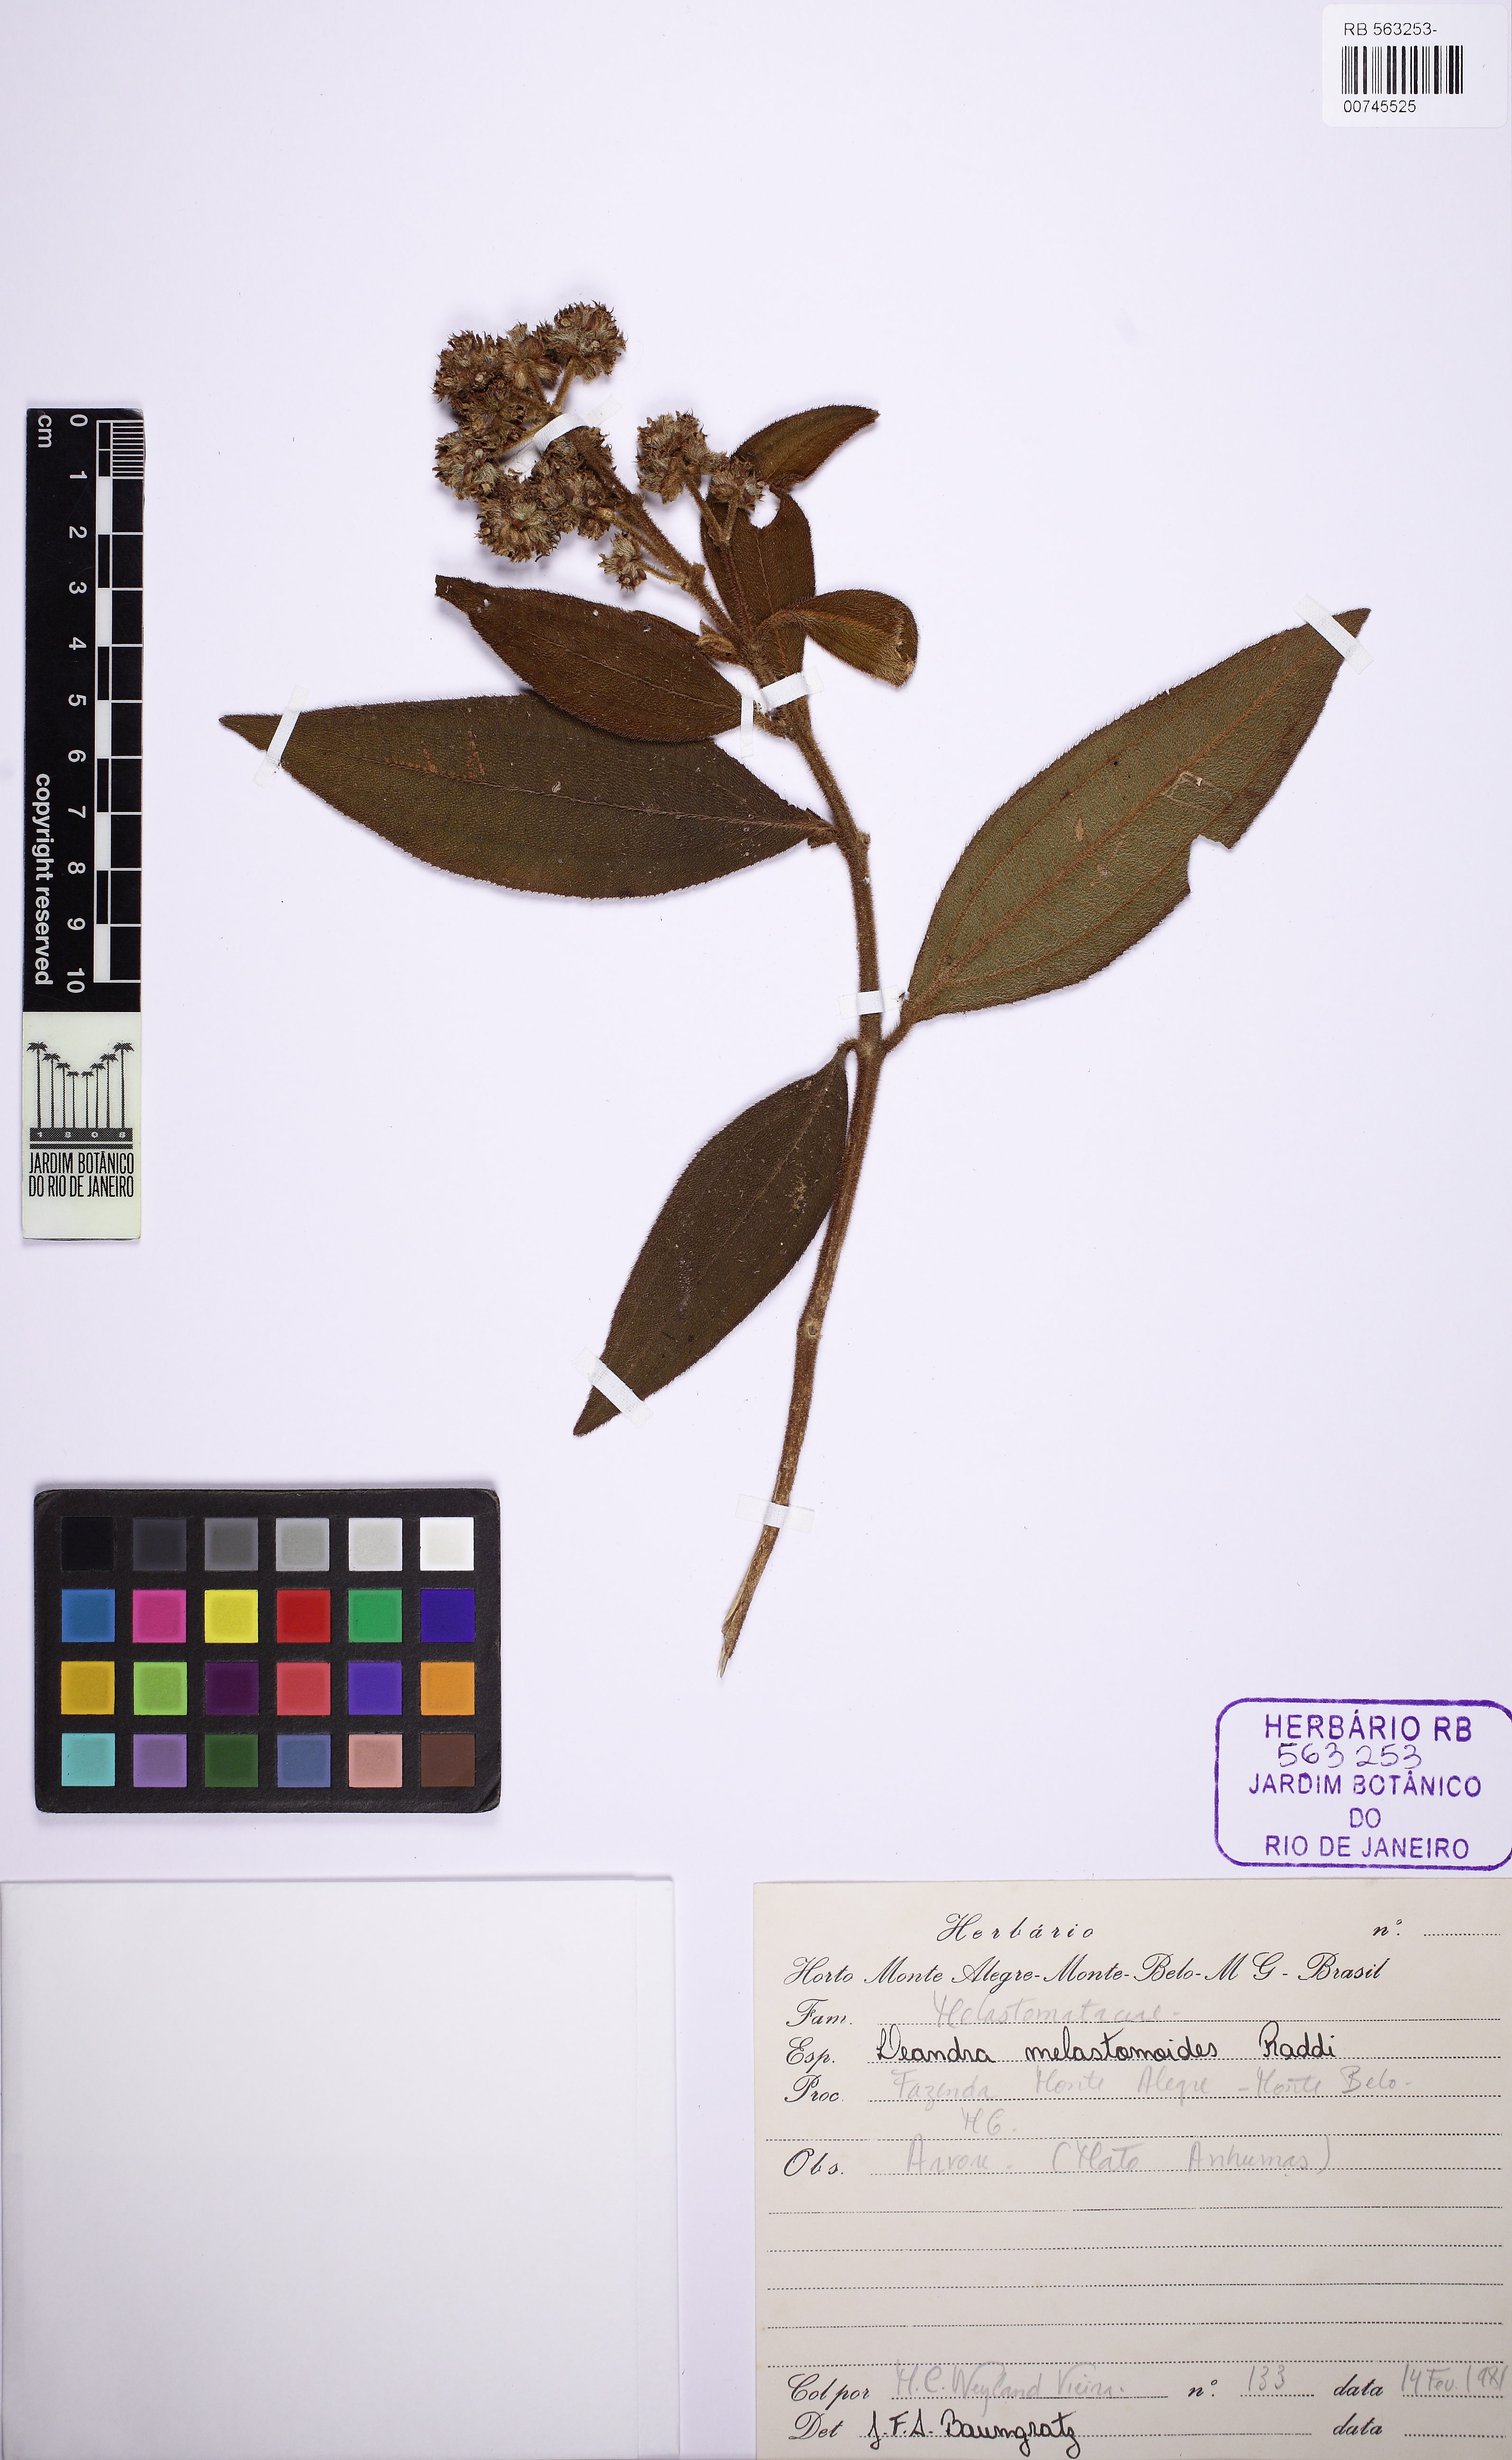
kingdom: Plantae
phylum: Tracheophyta
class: Magnoliopsida
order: Myrtales
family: Melastomataceae
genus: Miconia
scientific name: Miconia melastomoides
